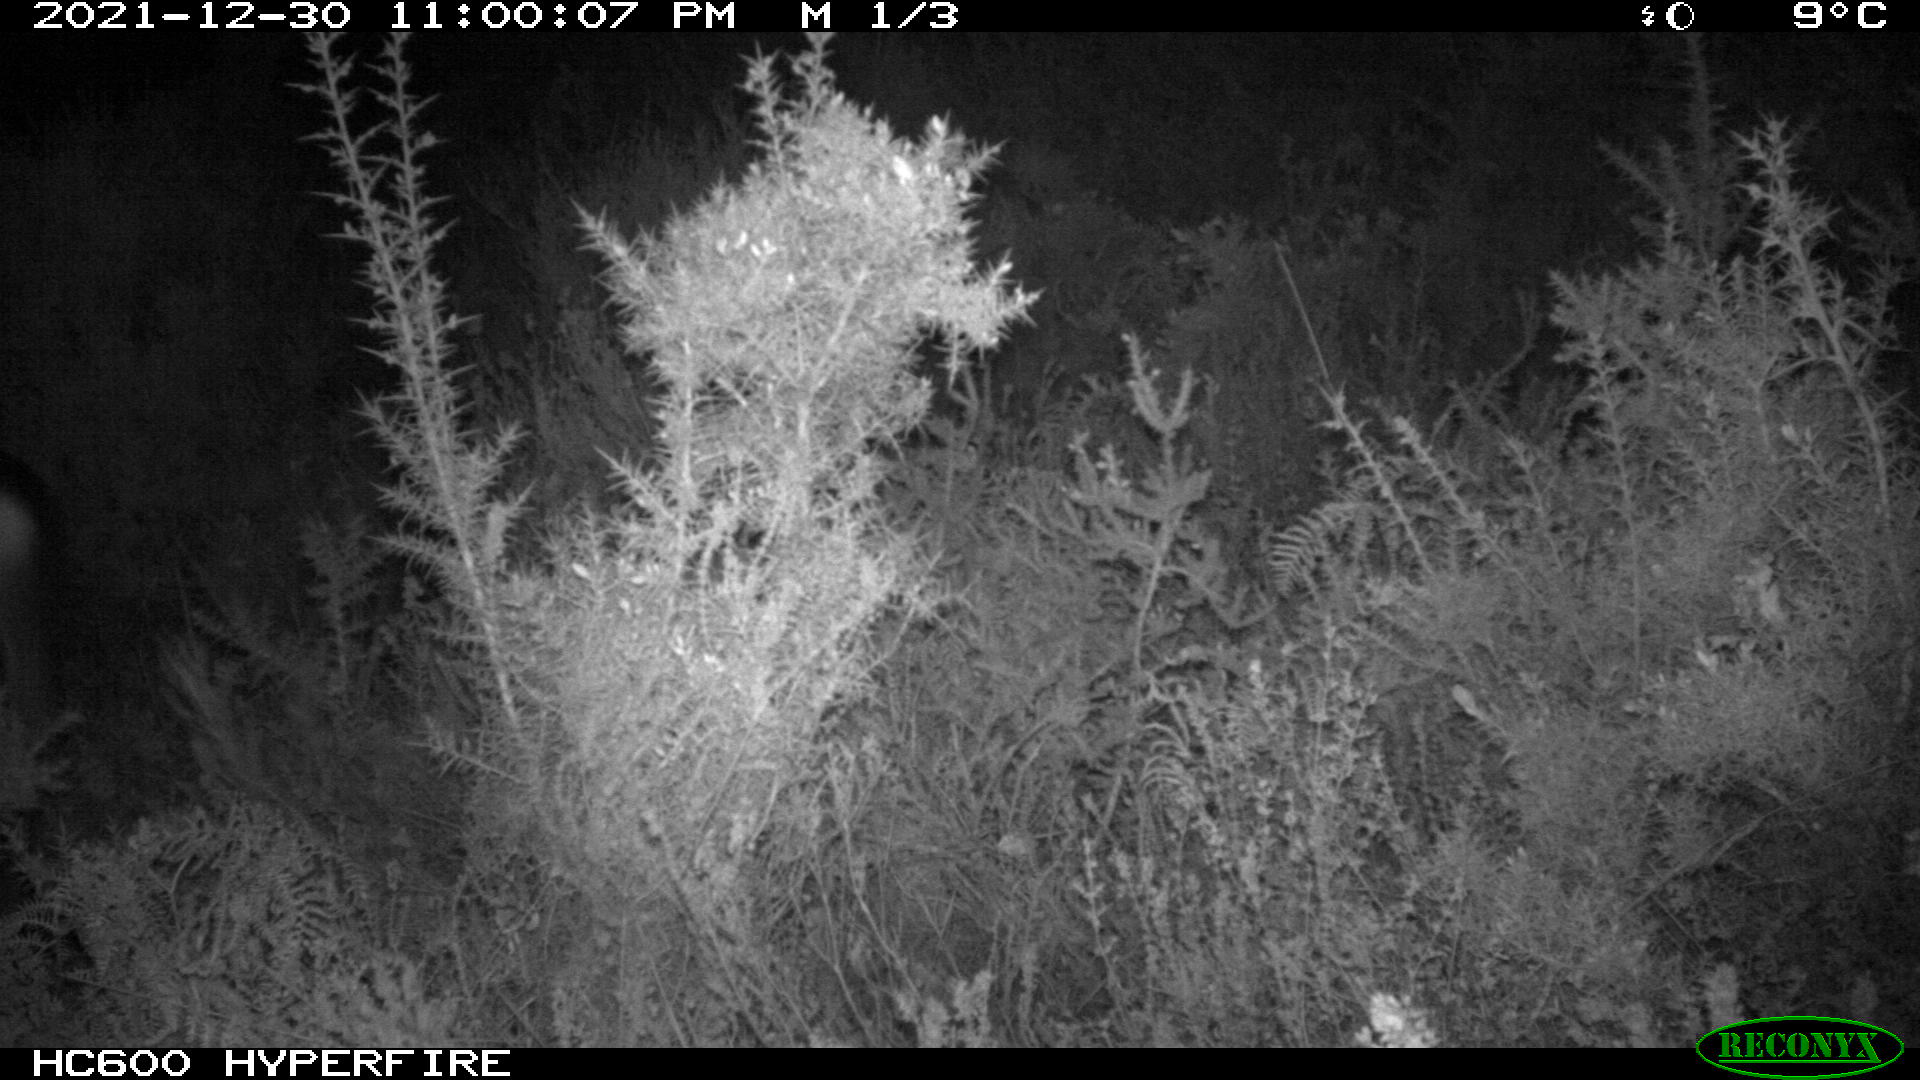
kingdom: Animalia
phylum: Chordata
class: Mammalia
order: Artiodactyla
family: Cervidae
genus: Capreolus
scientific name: Capreolus capreolus
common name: Western roe deer
